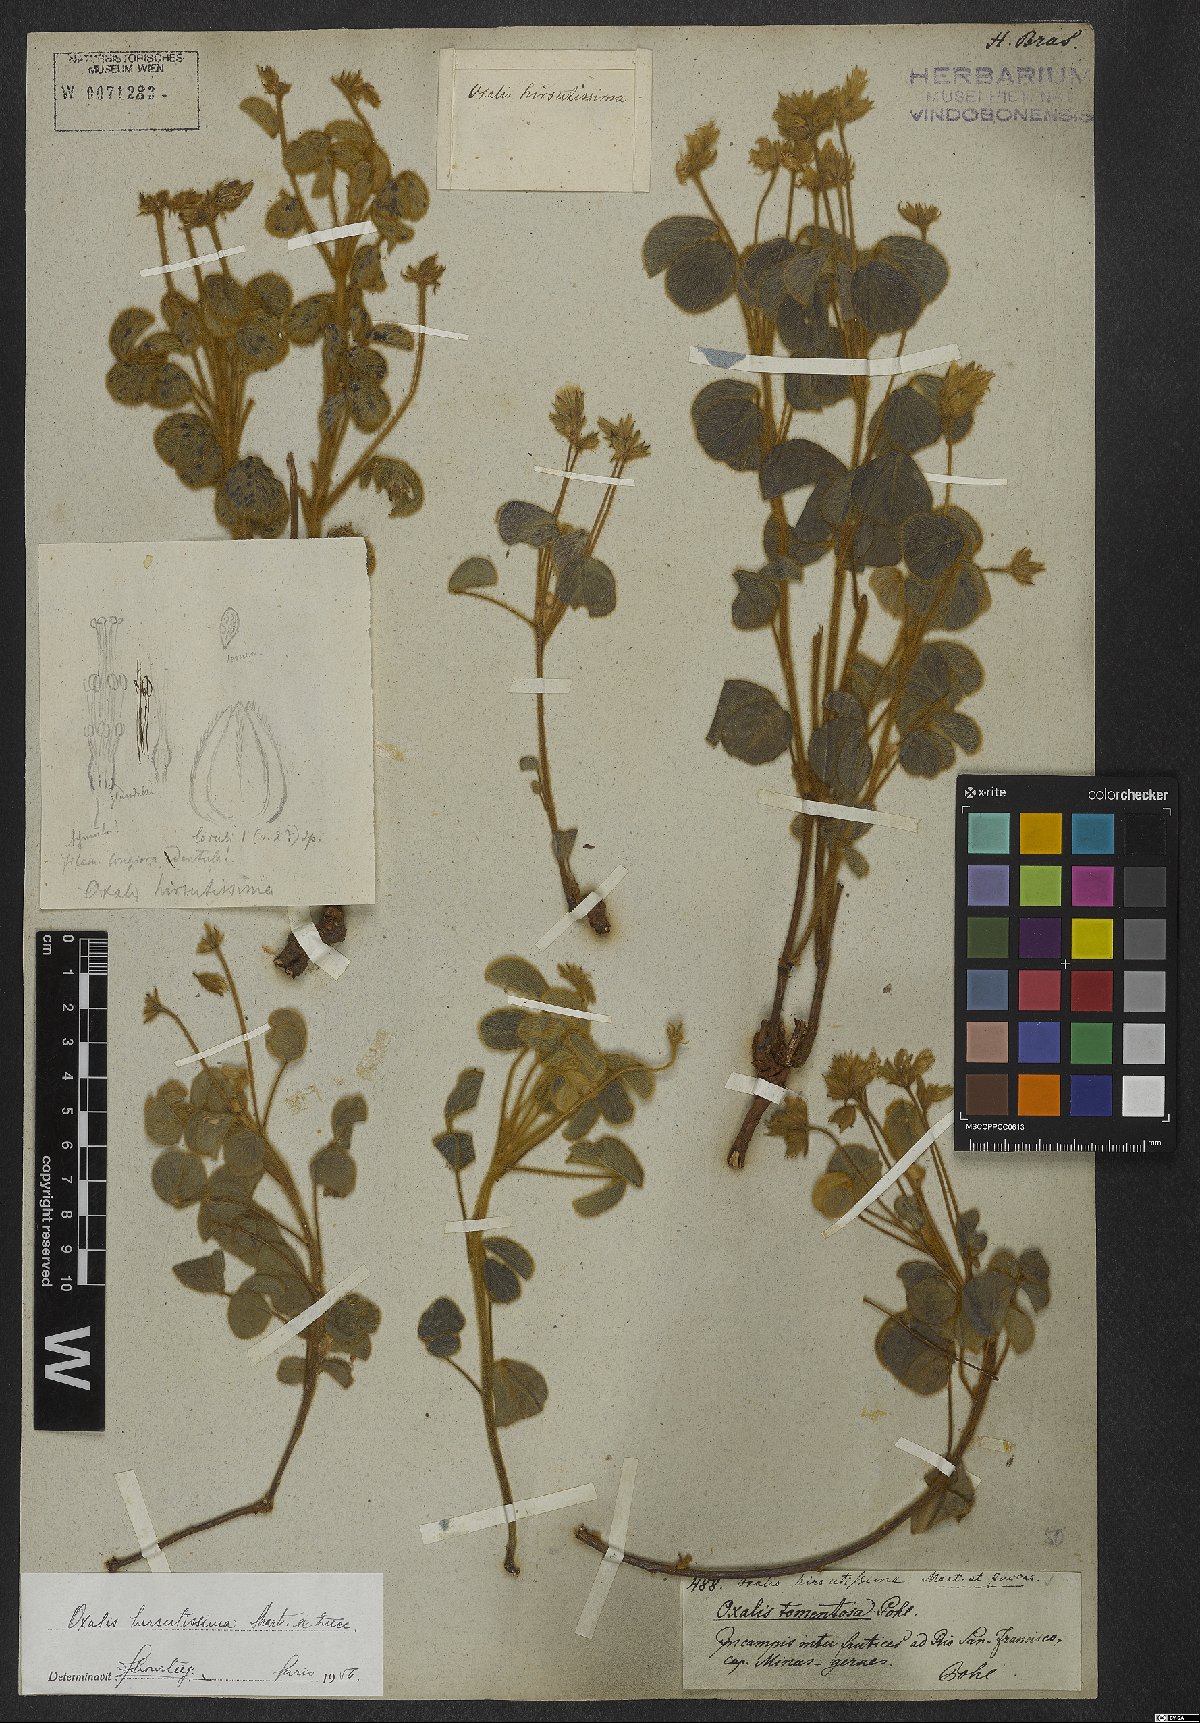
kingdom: Plantae
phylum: Tracheophyta
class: Magnoliopsida
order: Oxalidales
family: Oxalidaceae
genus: Oxalis
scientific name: Oxalis hirsutissima
